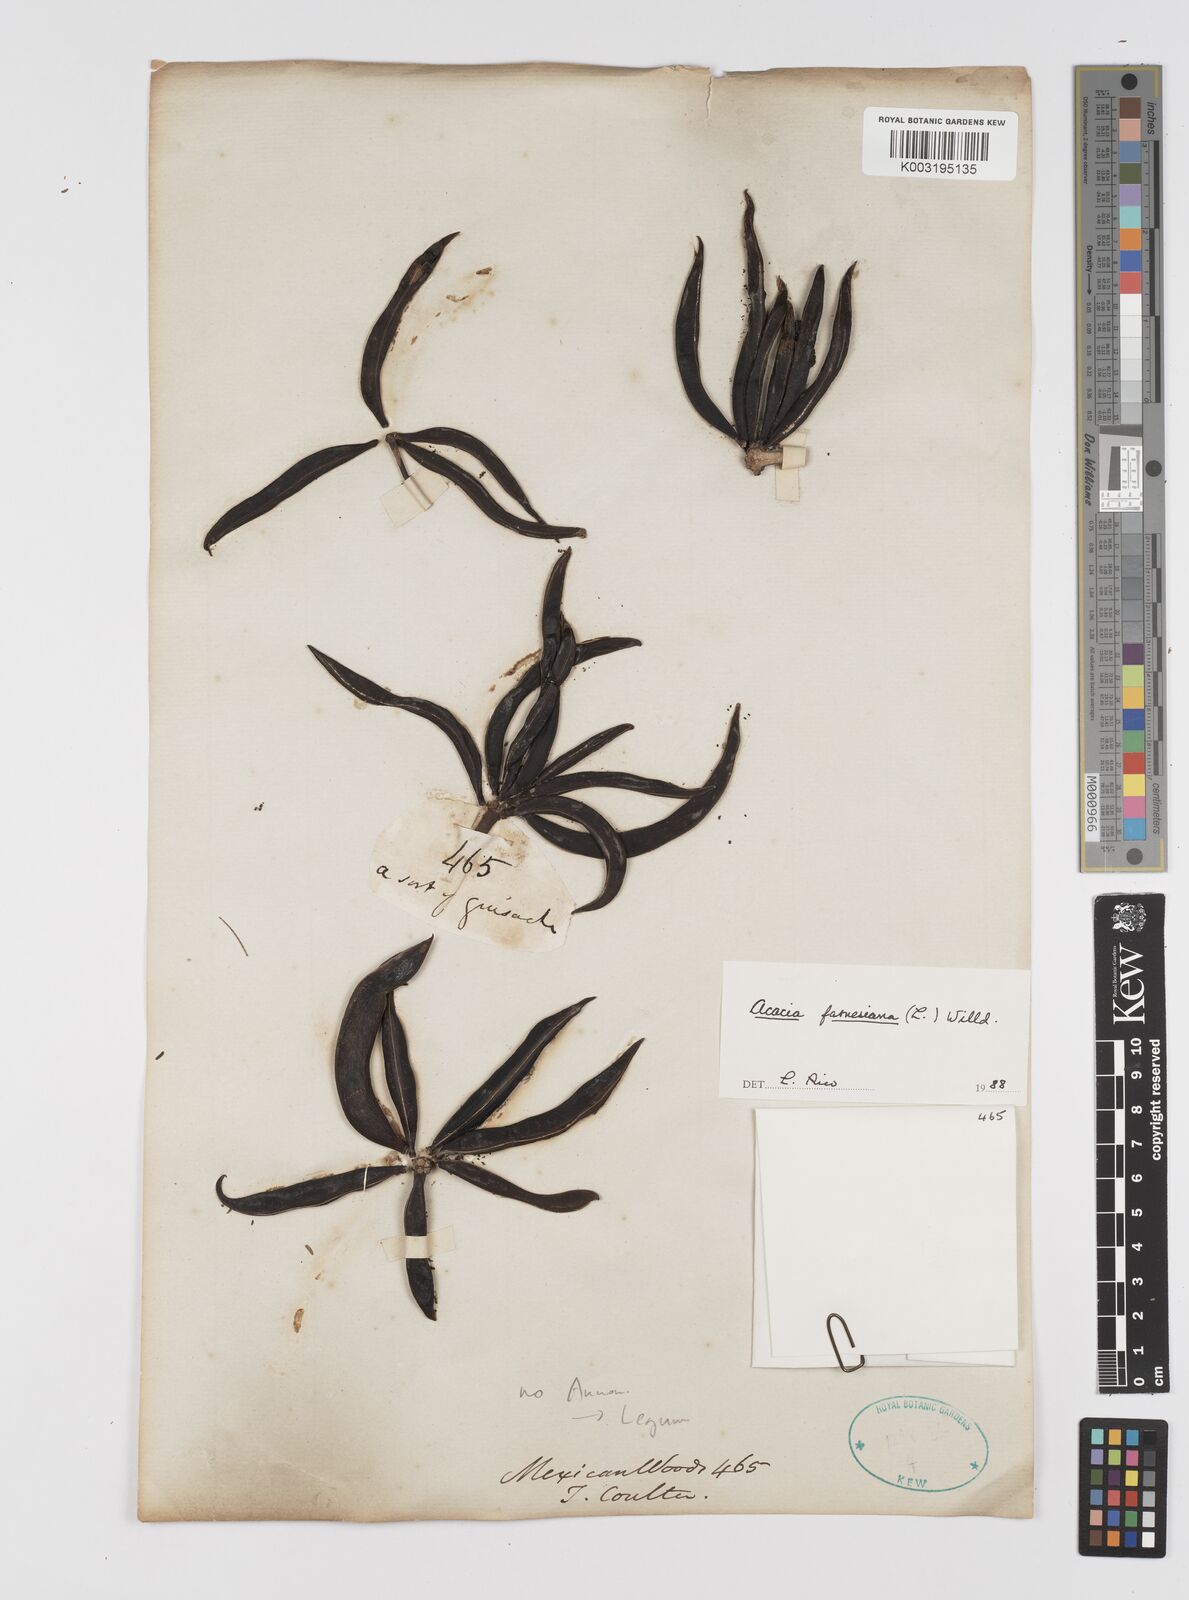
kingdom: Plantae
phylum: Tracheophyta
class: Magnoliopsida
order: Fabales
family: Fabaceae
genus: Vachellia
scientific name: Vachellia farnesiana
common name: Sweet acacia
